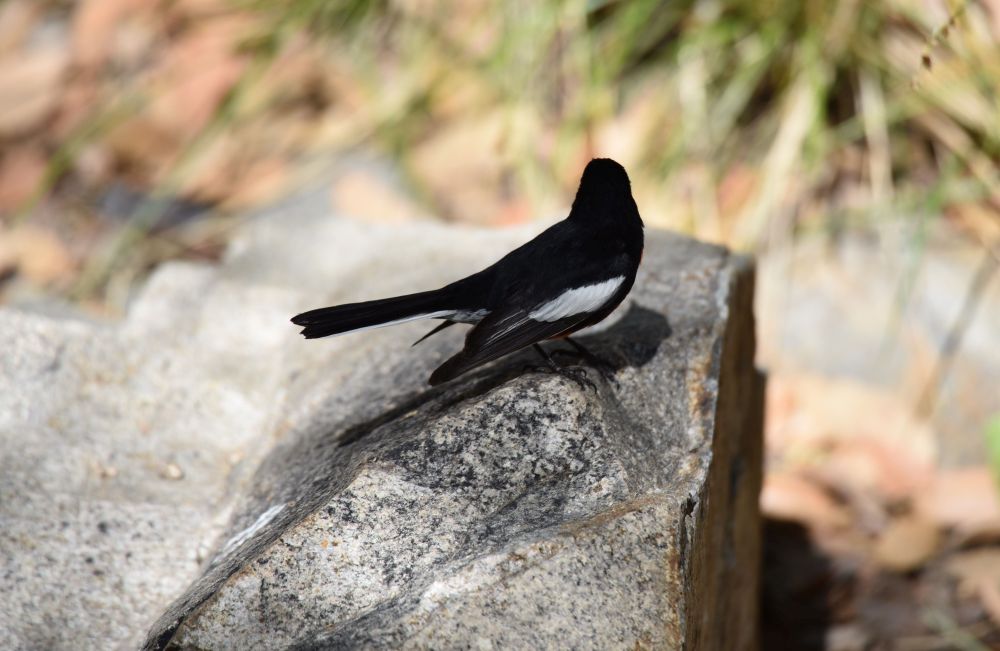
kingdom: Animalia
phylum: Chordata
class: Aves
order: Passeriformes
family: Parulidae
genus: Myioborus
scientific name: Myioborus pictus
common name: Painted whitestart
